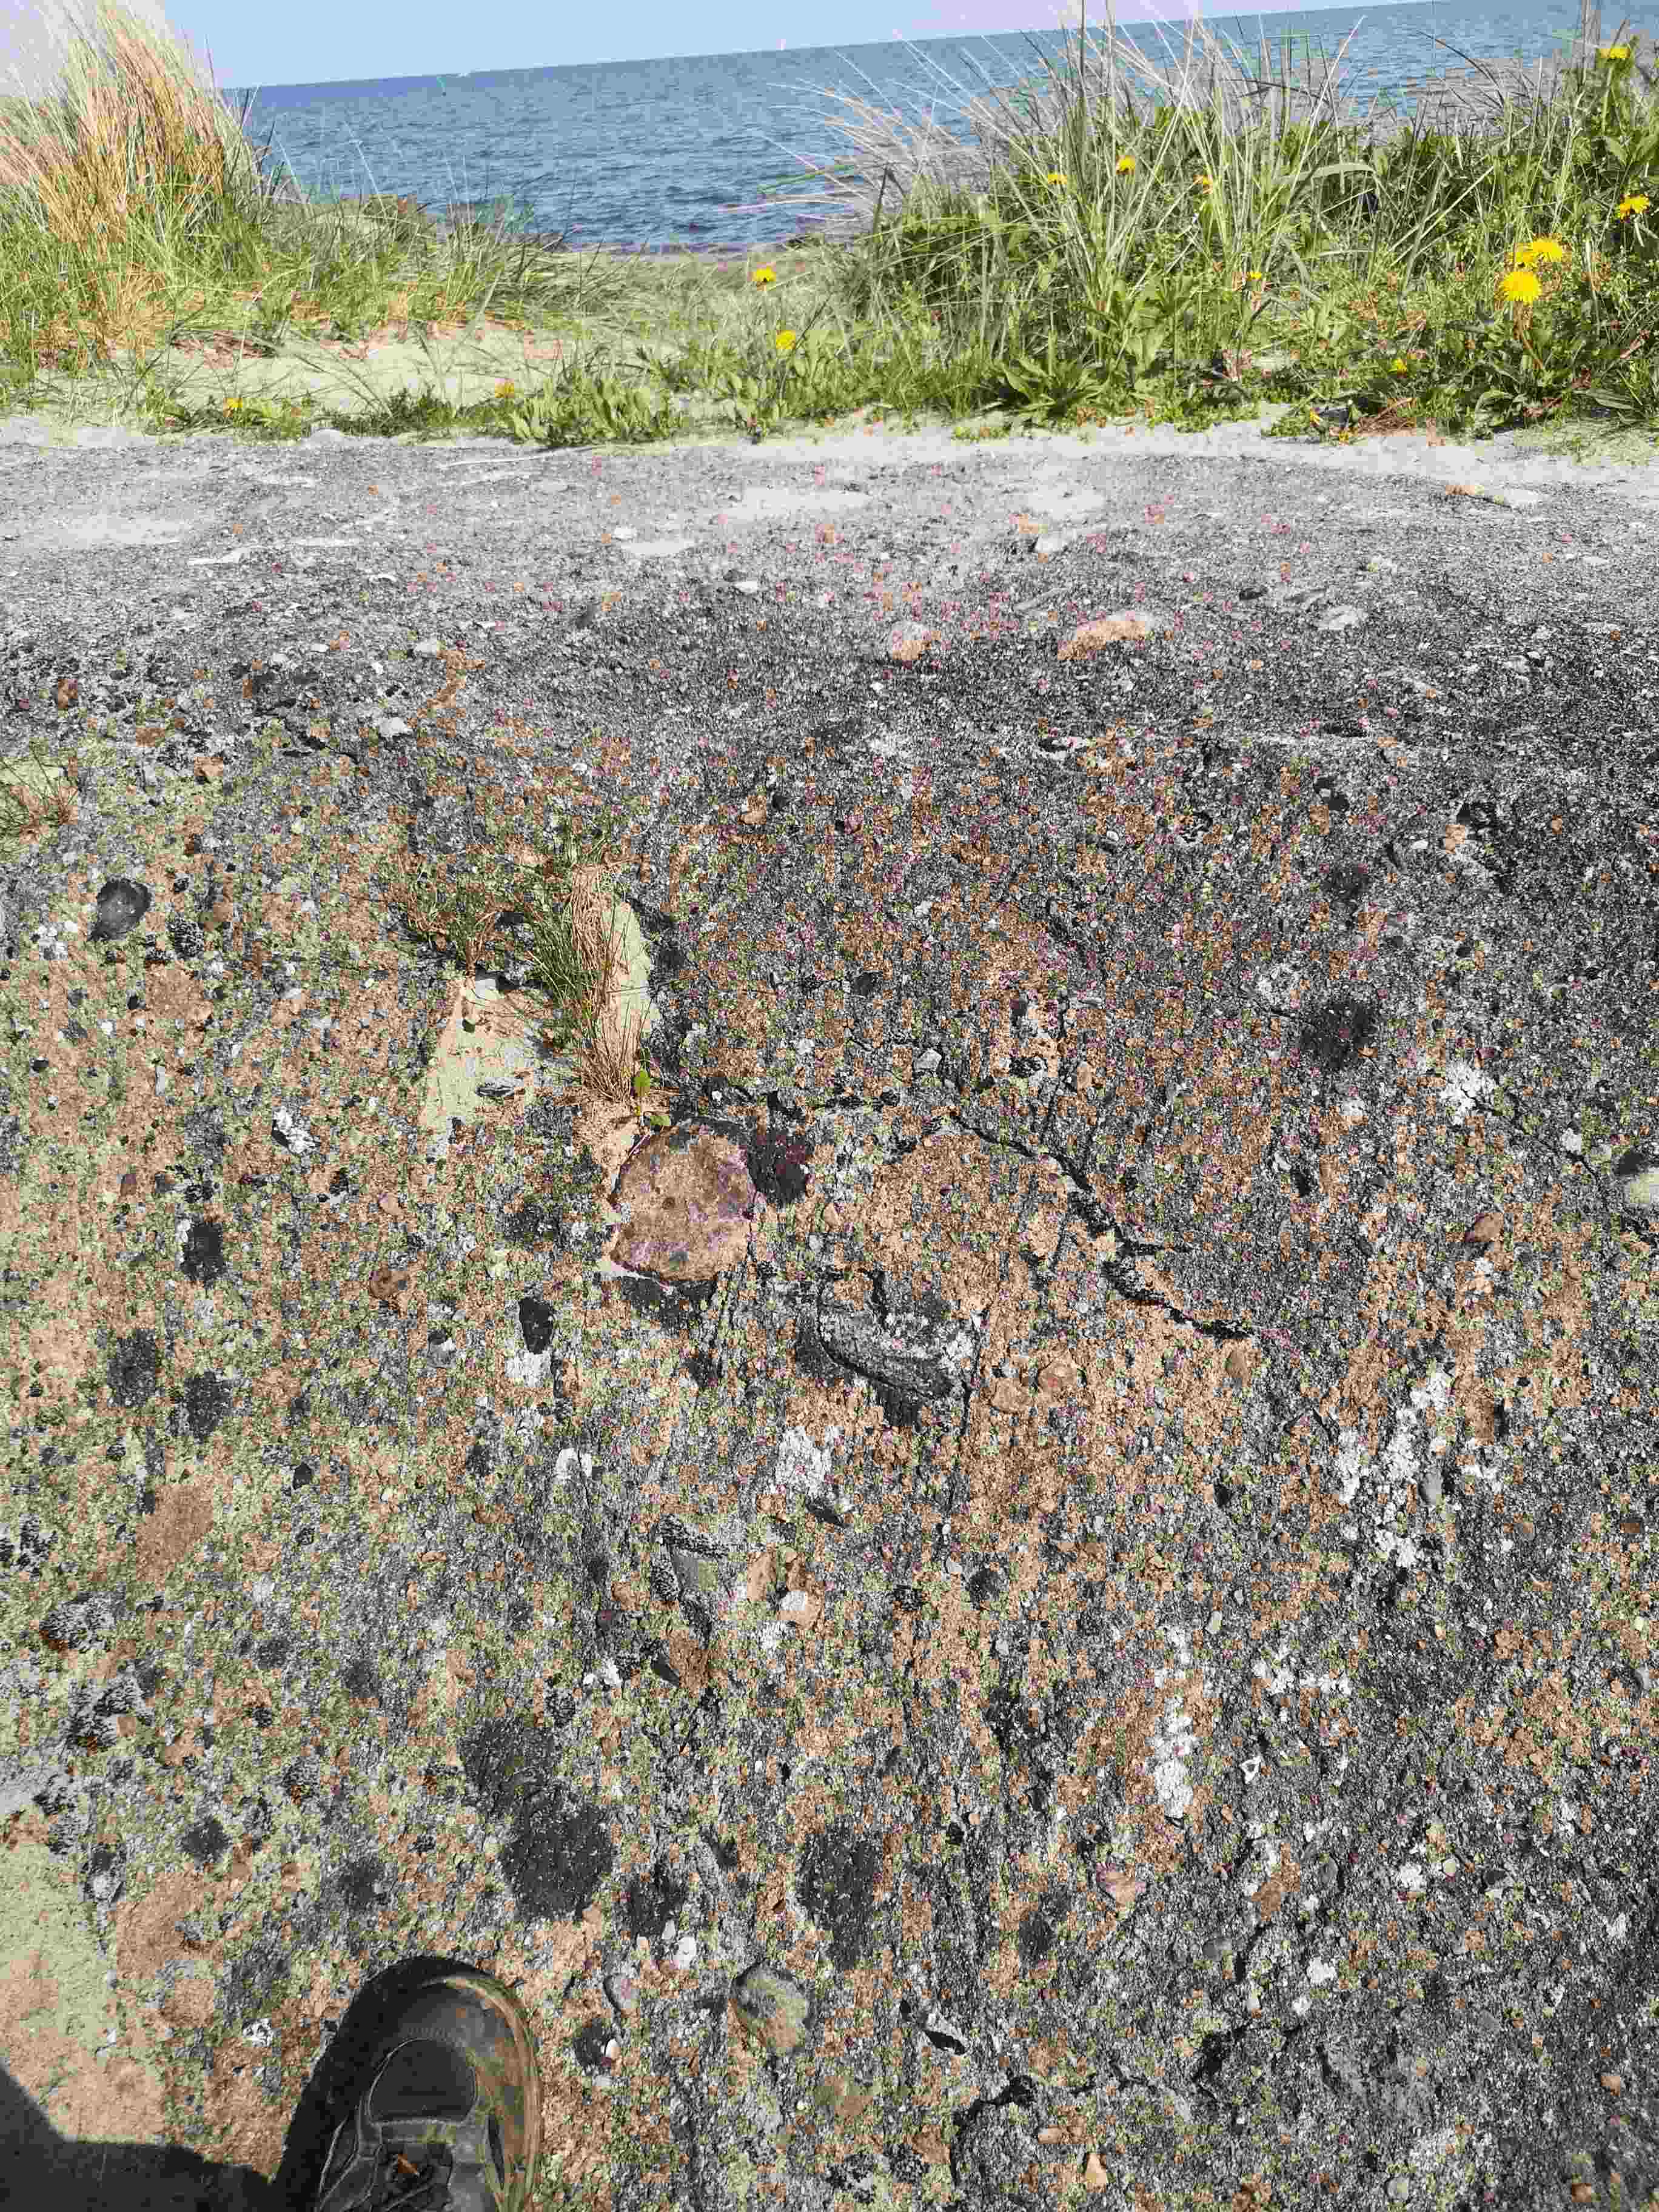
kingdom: Fungi
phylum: Ascomycota
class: Lecanoromycetes
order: Acarosporales
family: Acarosporaceae
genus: Acarospora
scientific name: Acarospora fuscata
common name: brun småsporelav
